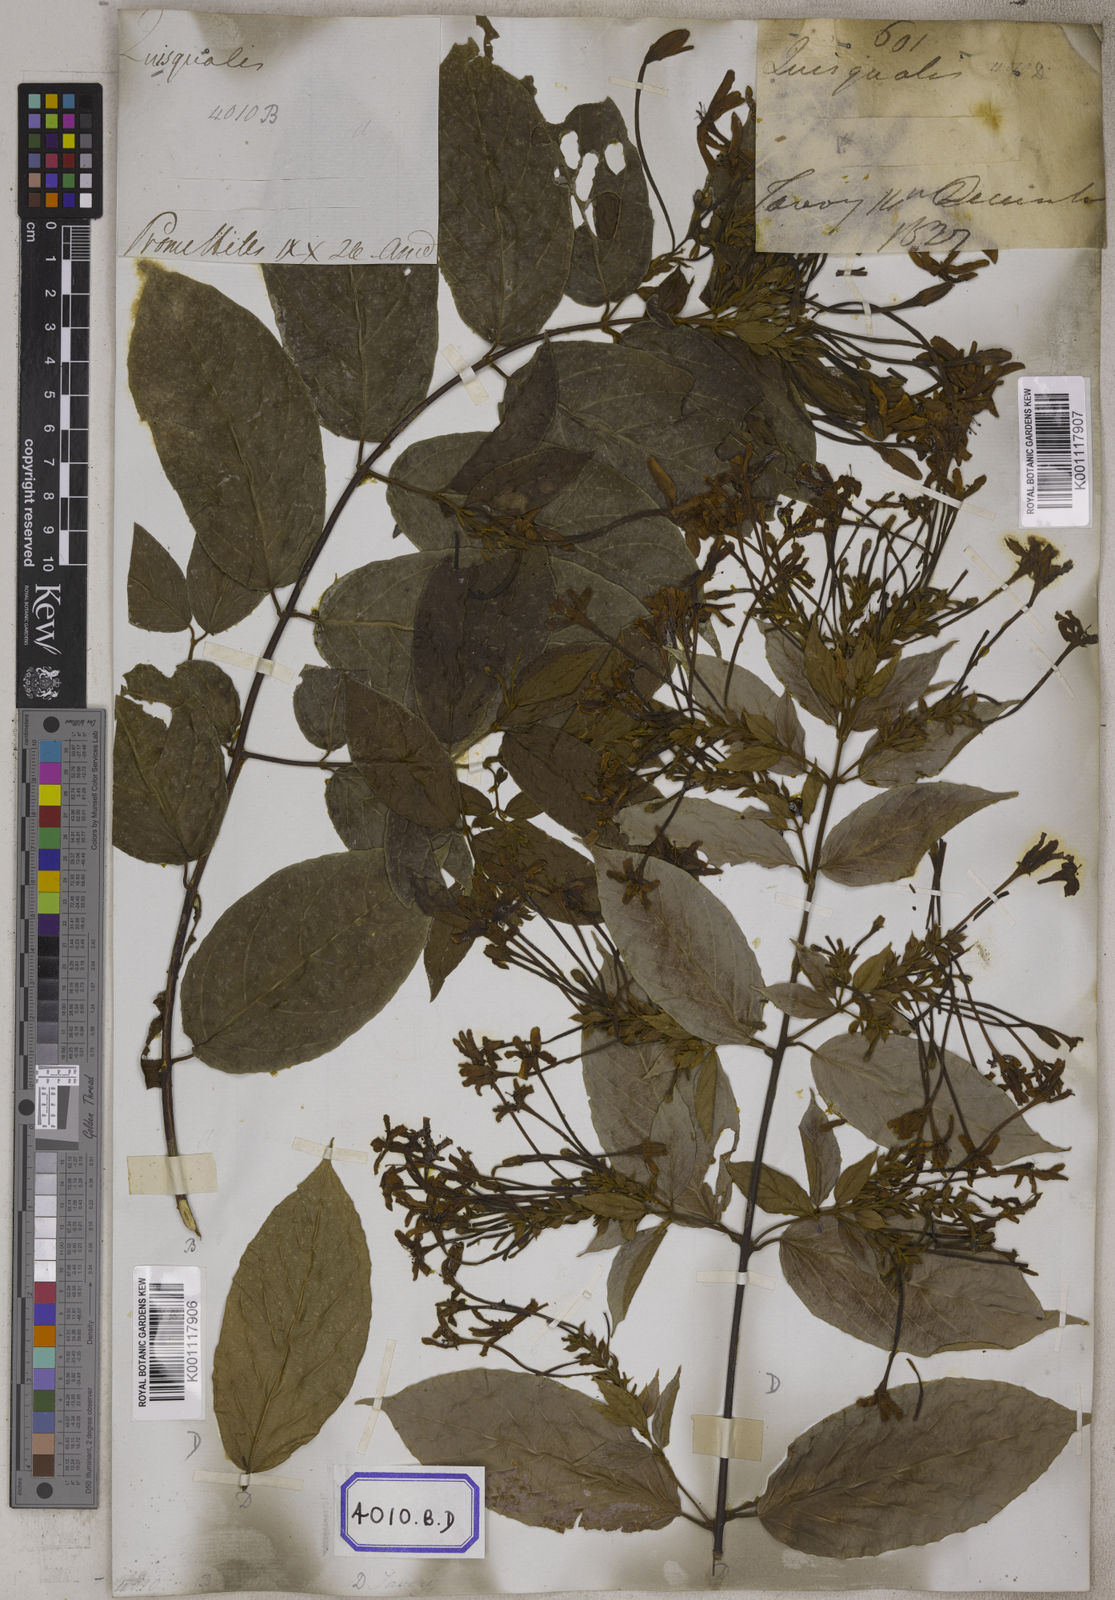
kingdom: Plantae
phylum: Tracheophyta
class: Magnoliopsida
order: Myrtales
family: Combretaceae
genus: Combretum
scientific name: Combretum indicum
